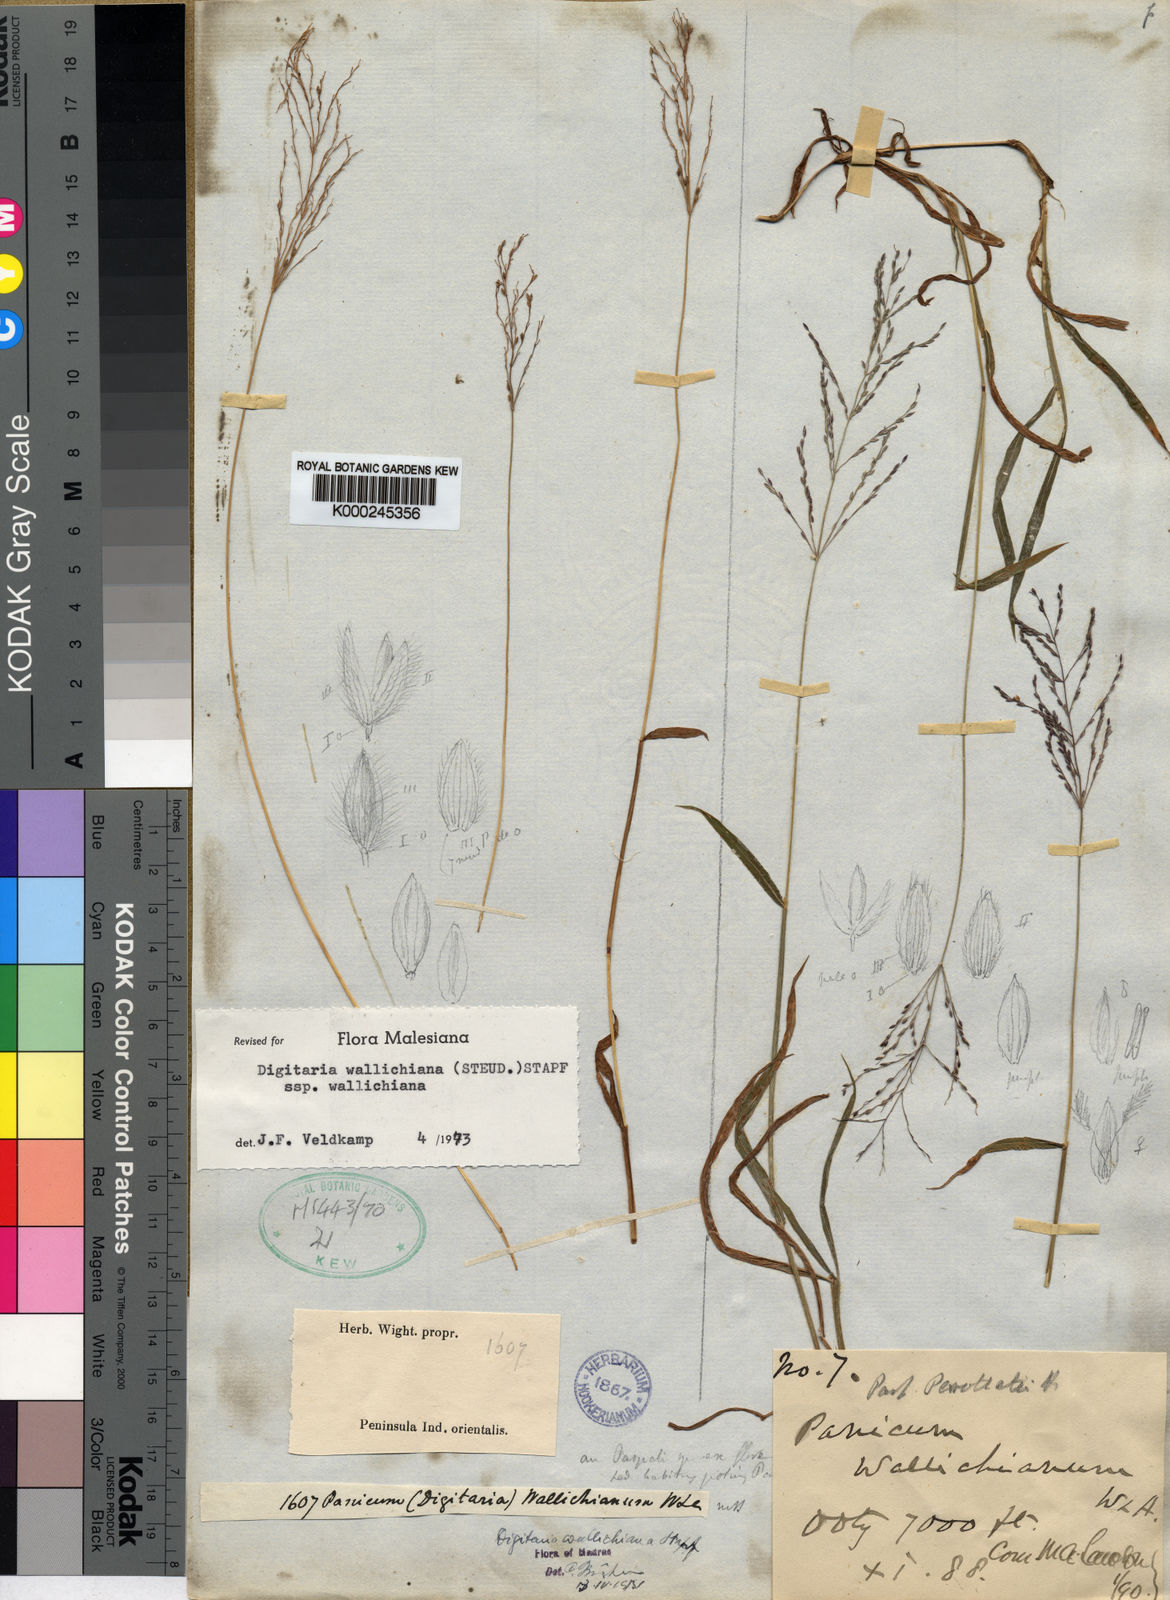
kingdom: Plantae
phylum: Tracheophyta
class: Liliopsida
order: Poales
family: Poaceae
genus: Digitaria
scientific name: Digitaria wallichiana
